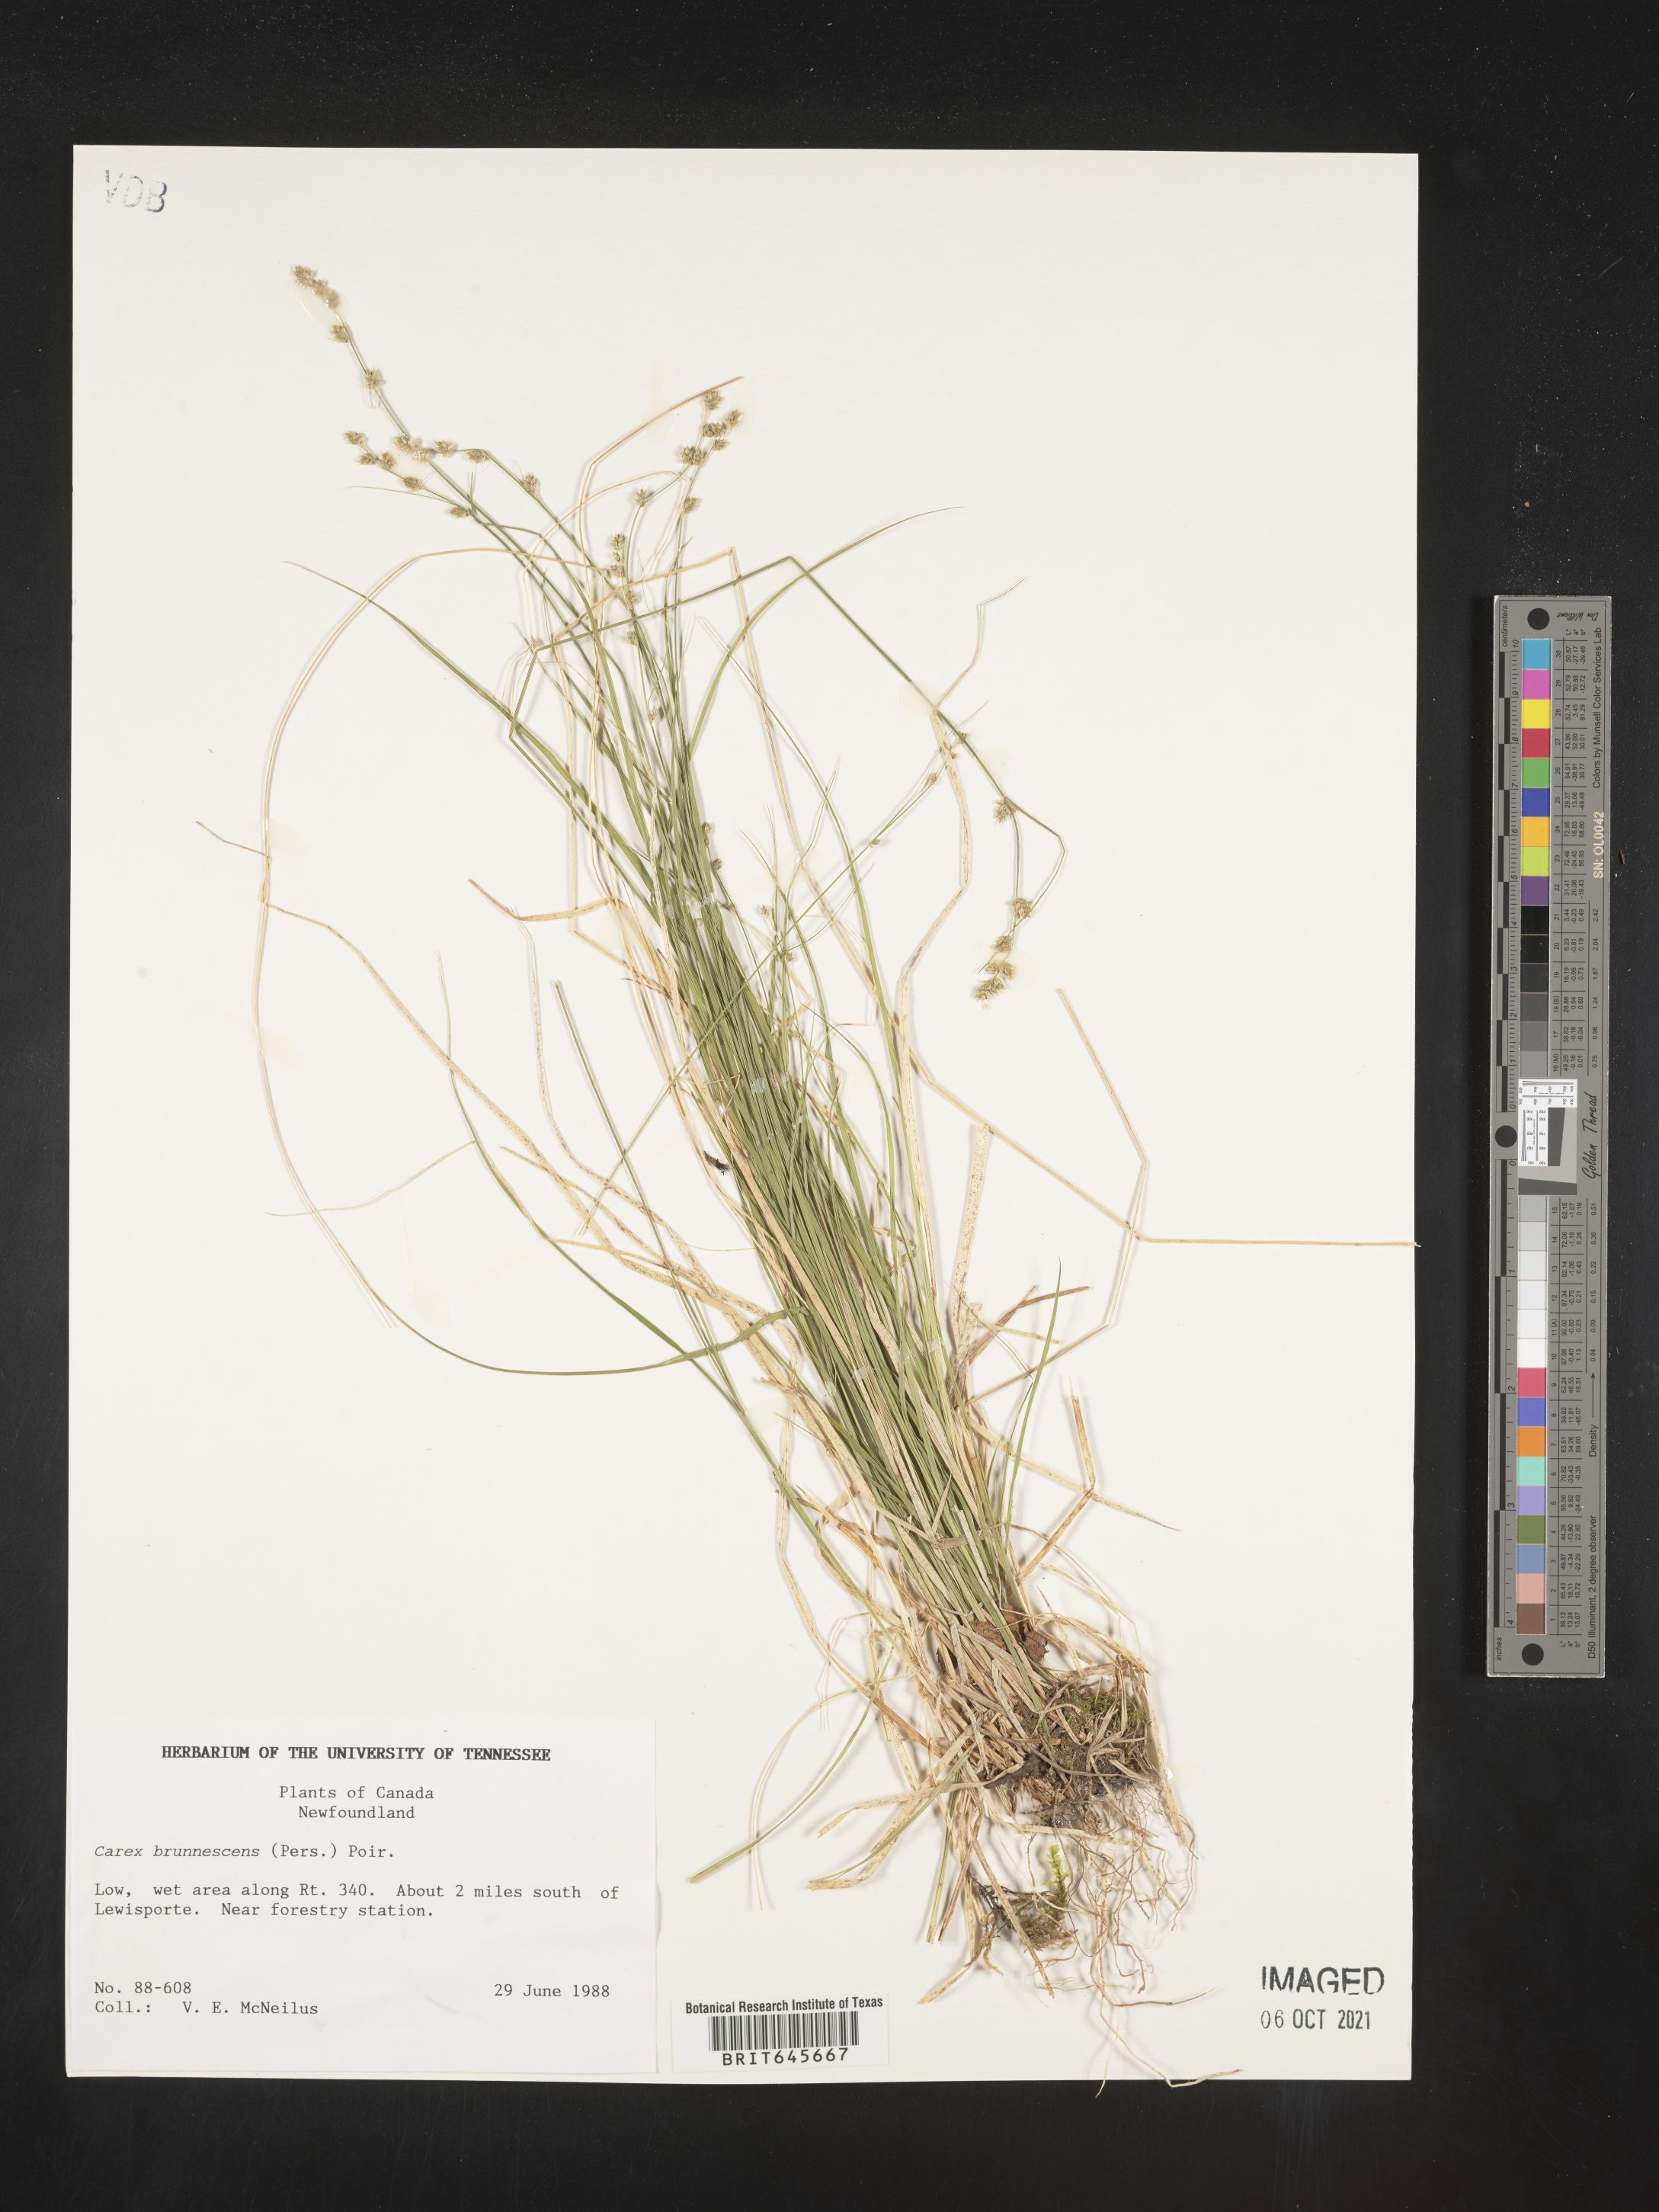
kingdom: Plantae
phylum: Tracheophyta
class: Liliopsida
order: Poales
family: Cyperaceae
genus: Carex
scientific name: Carex brunnescens
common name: Brown sedge
